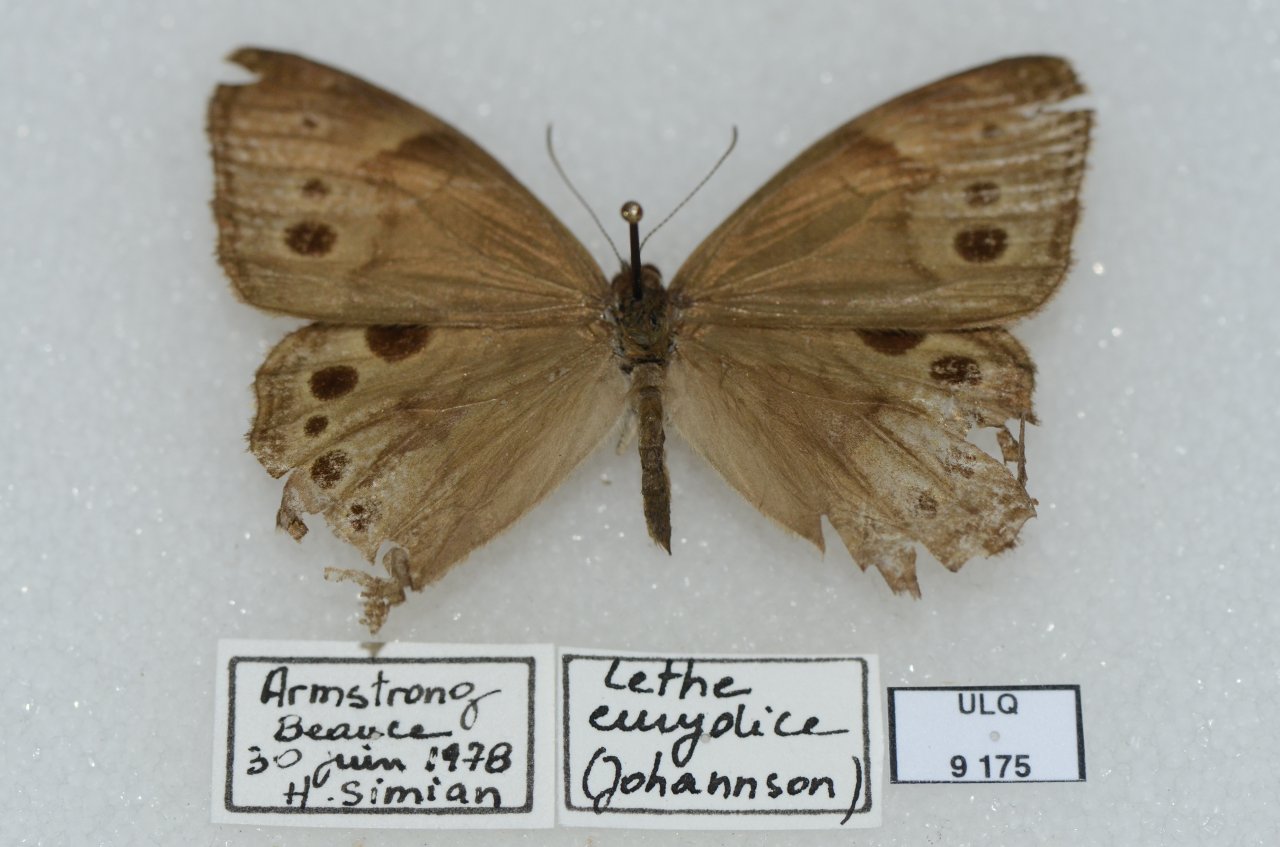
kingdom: Animalia
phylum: Arthropoda
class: Insecta
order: Lepidoptera
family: Nymphalidae
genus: Lethe
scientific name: Lethe anthedon
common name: Northern Pearly-Eye
